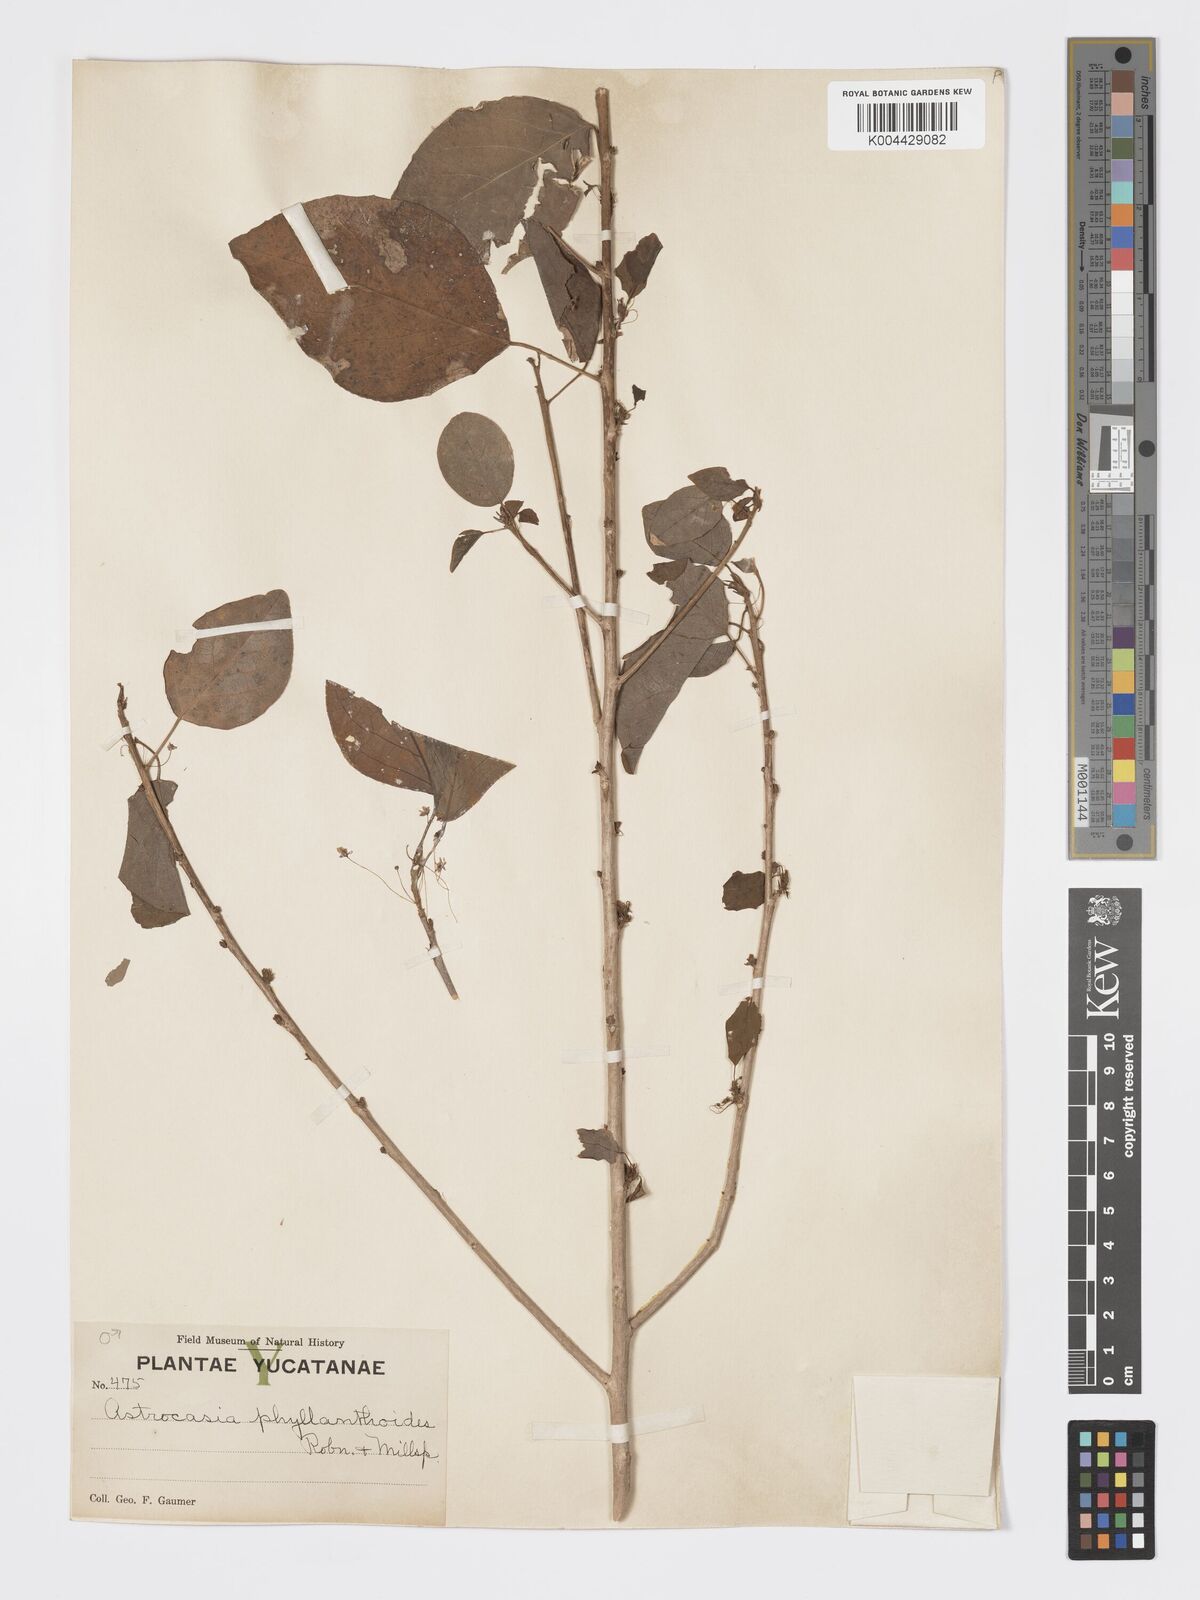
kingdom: Plantae
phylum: Tracheophyta
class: Magnoliopsida
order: Malpighiales
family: Phyllanthaceae
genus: Astrocasia
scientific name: Astrocasia tremula
